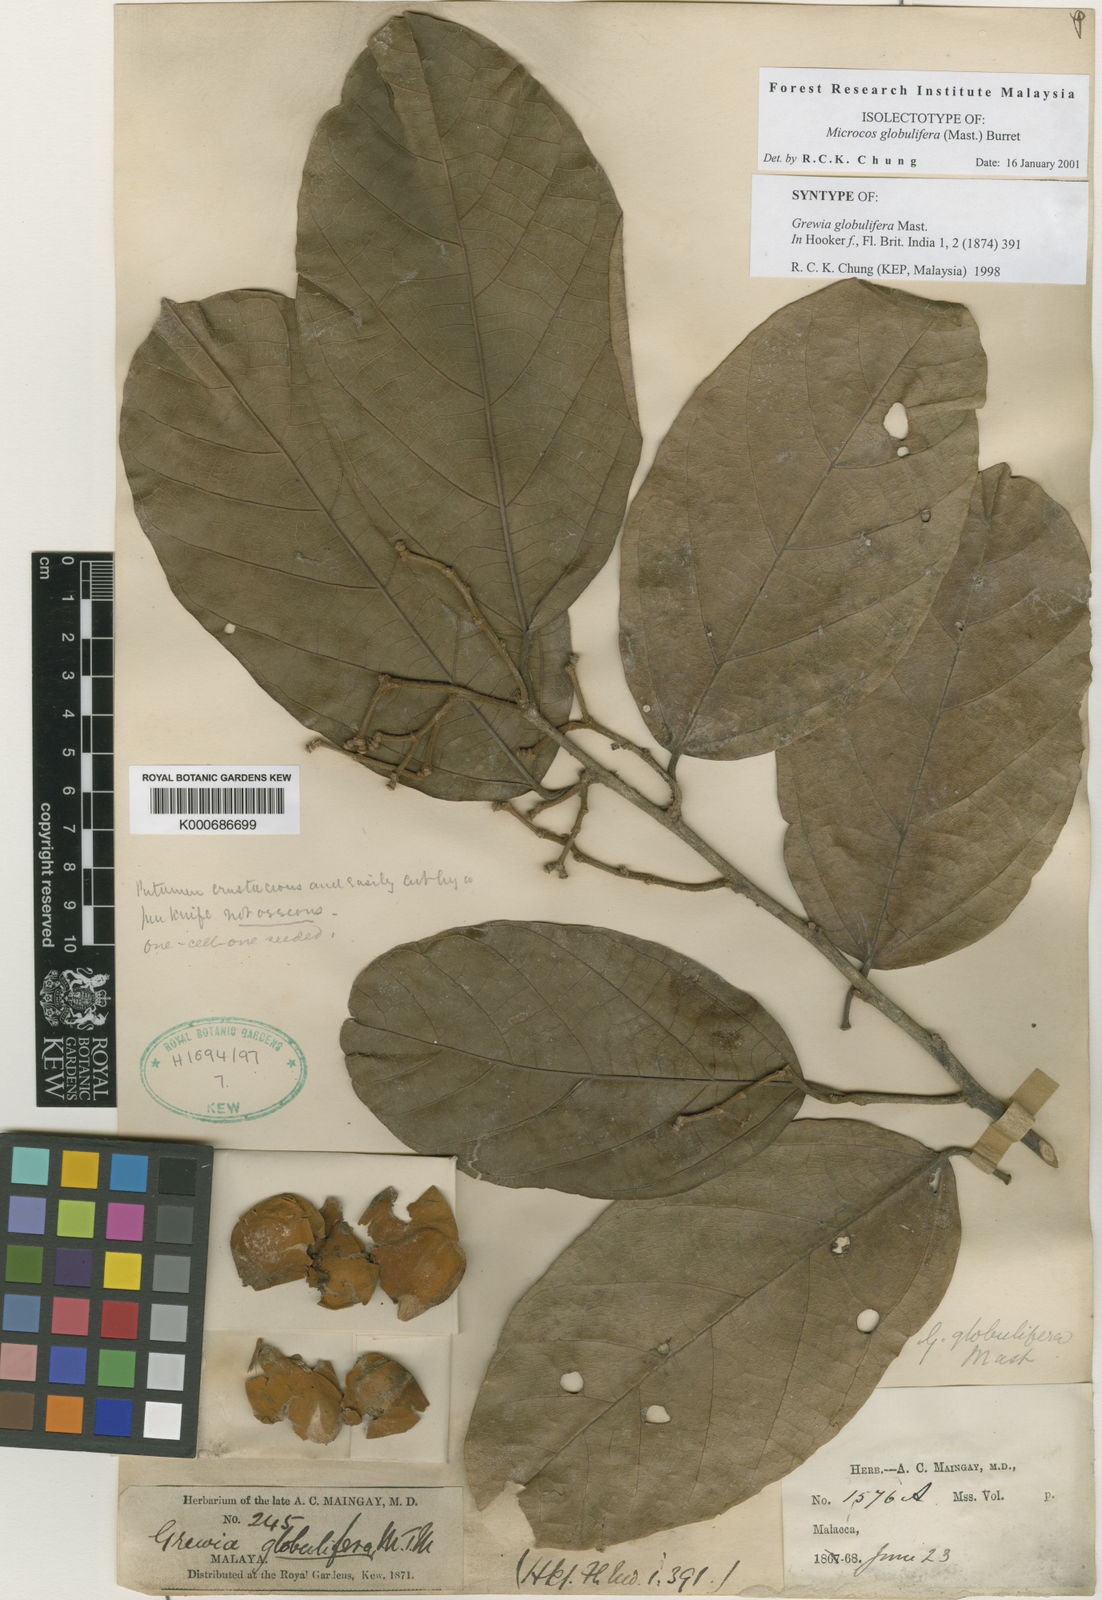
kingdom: Plantae
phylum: Tracheophyta
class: Magnoliopsida
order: Malvales
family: Malvaceae
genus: Microcos
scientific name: Microcos globulifera
